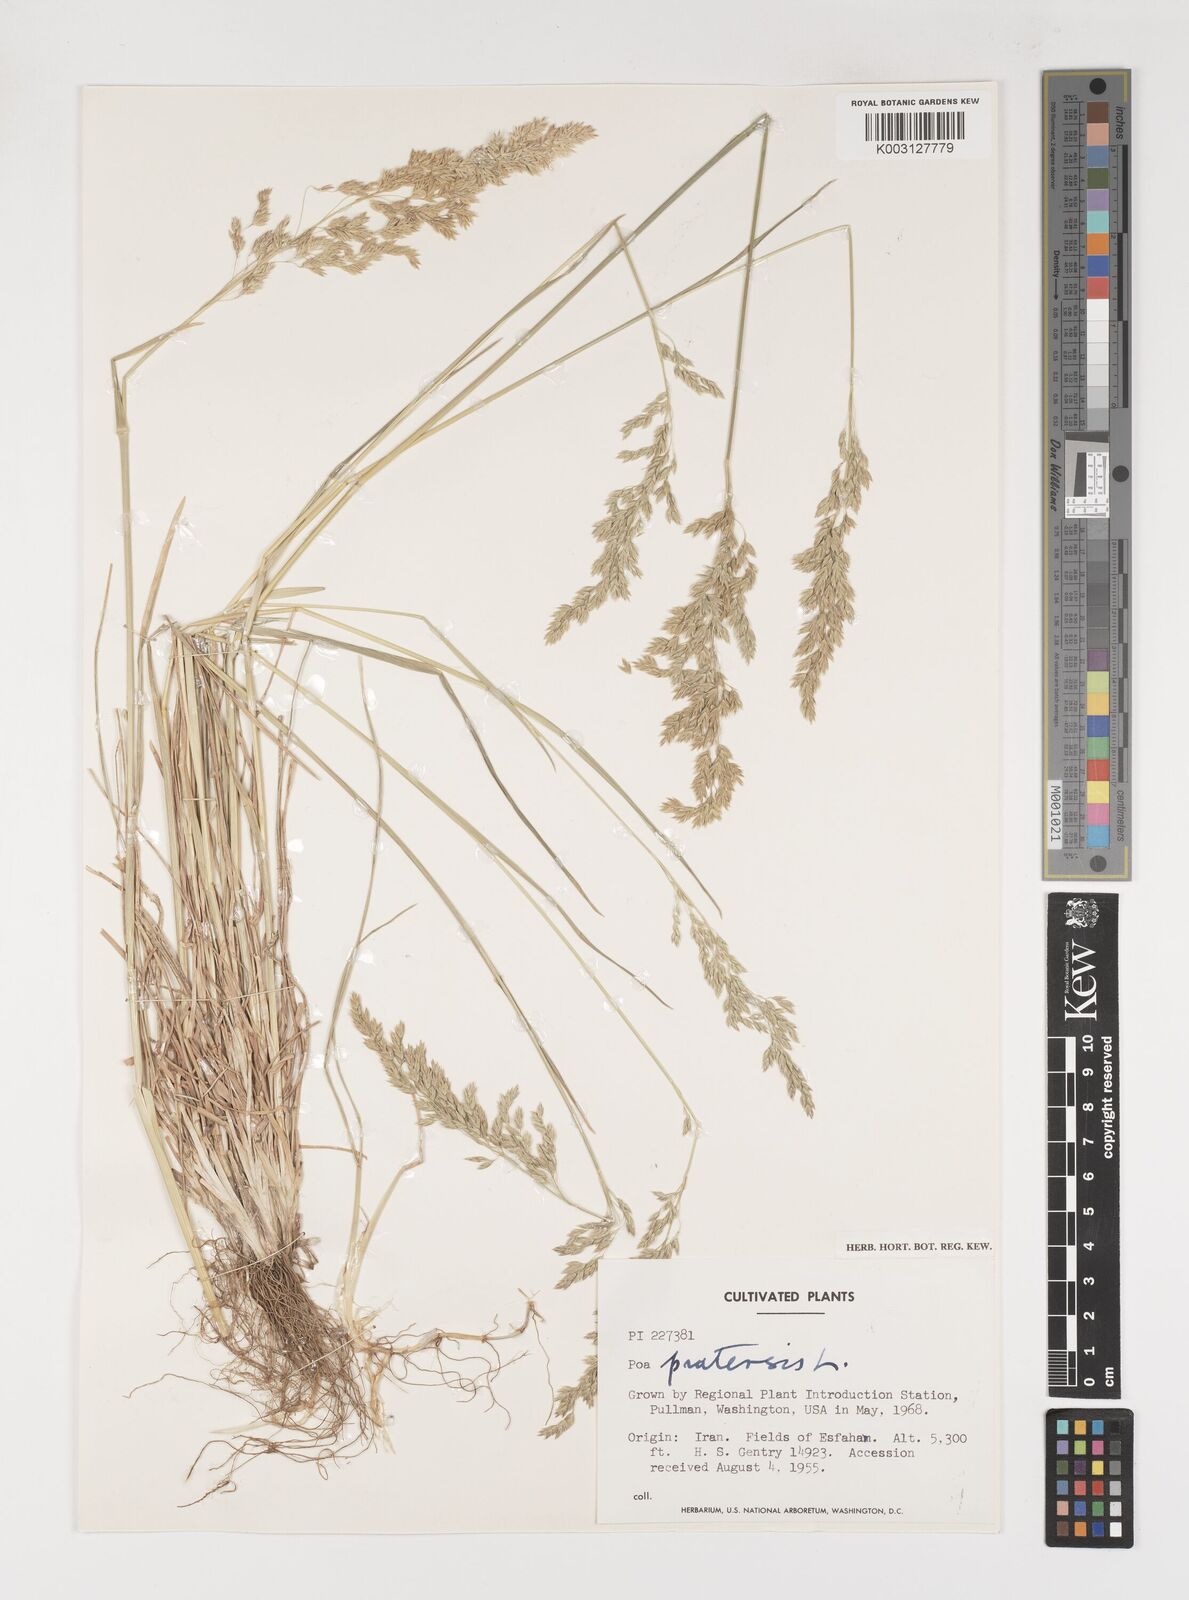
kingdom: Plantae
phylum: Tracheophyta
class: Liliopsida
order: Poales
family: Poaceae
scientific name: Poaceae
